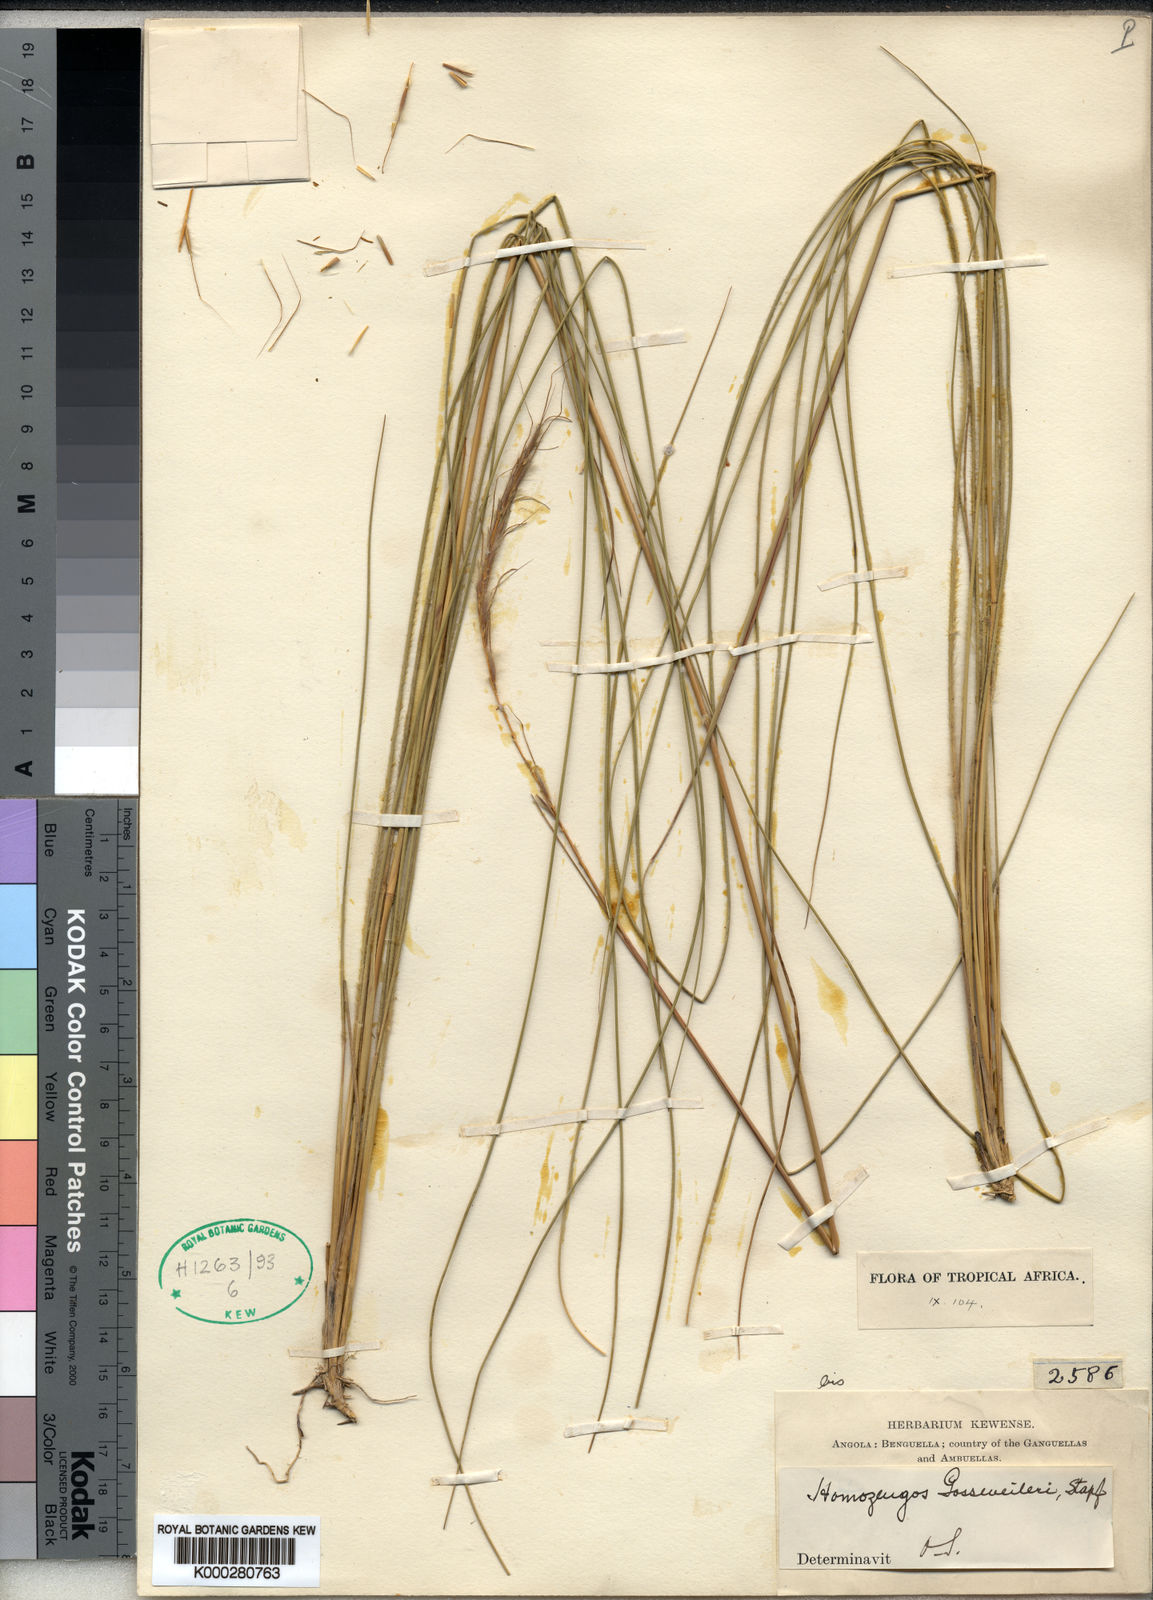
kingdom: Plantae
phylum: Tracheophyta
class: Liliopsida
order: Poales
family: Poaceae
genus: Homozeugos
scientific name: Homozeugos gossweileri
